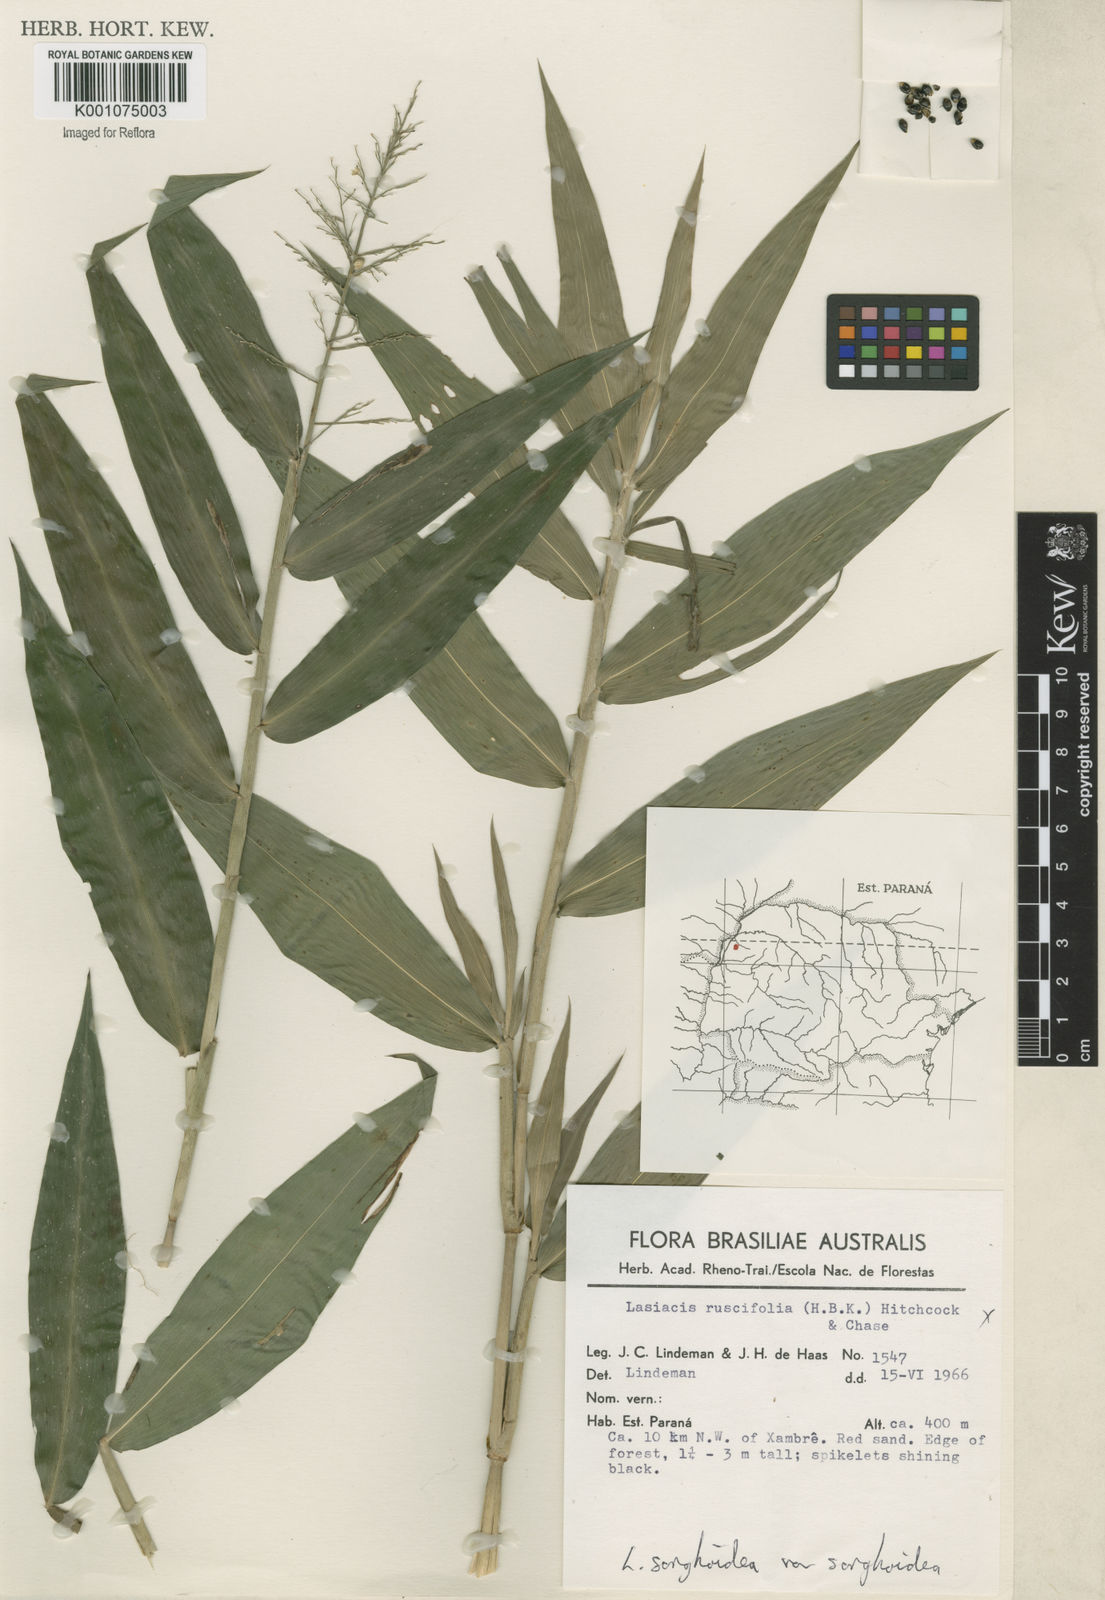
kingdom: Plantae
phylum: Tracheophyta
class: Liliopsida
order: Poales
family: Poaceae
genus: Lasiacis
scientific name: Lasiacis maculata
